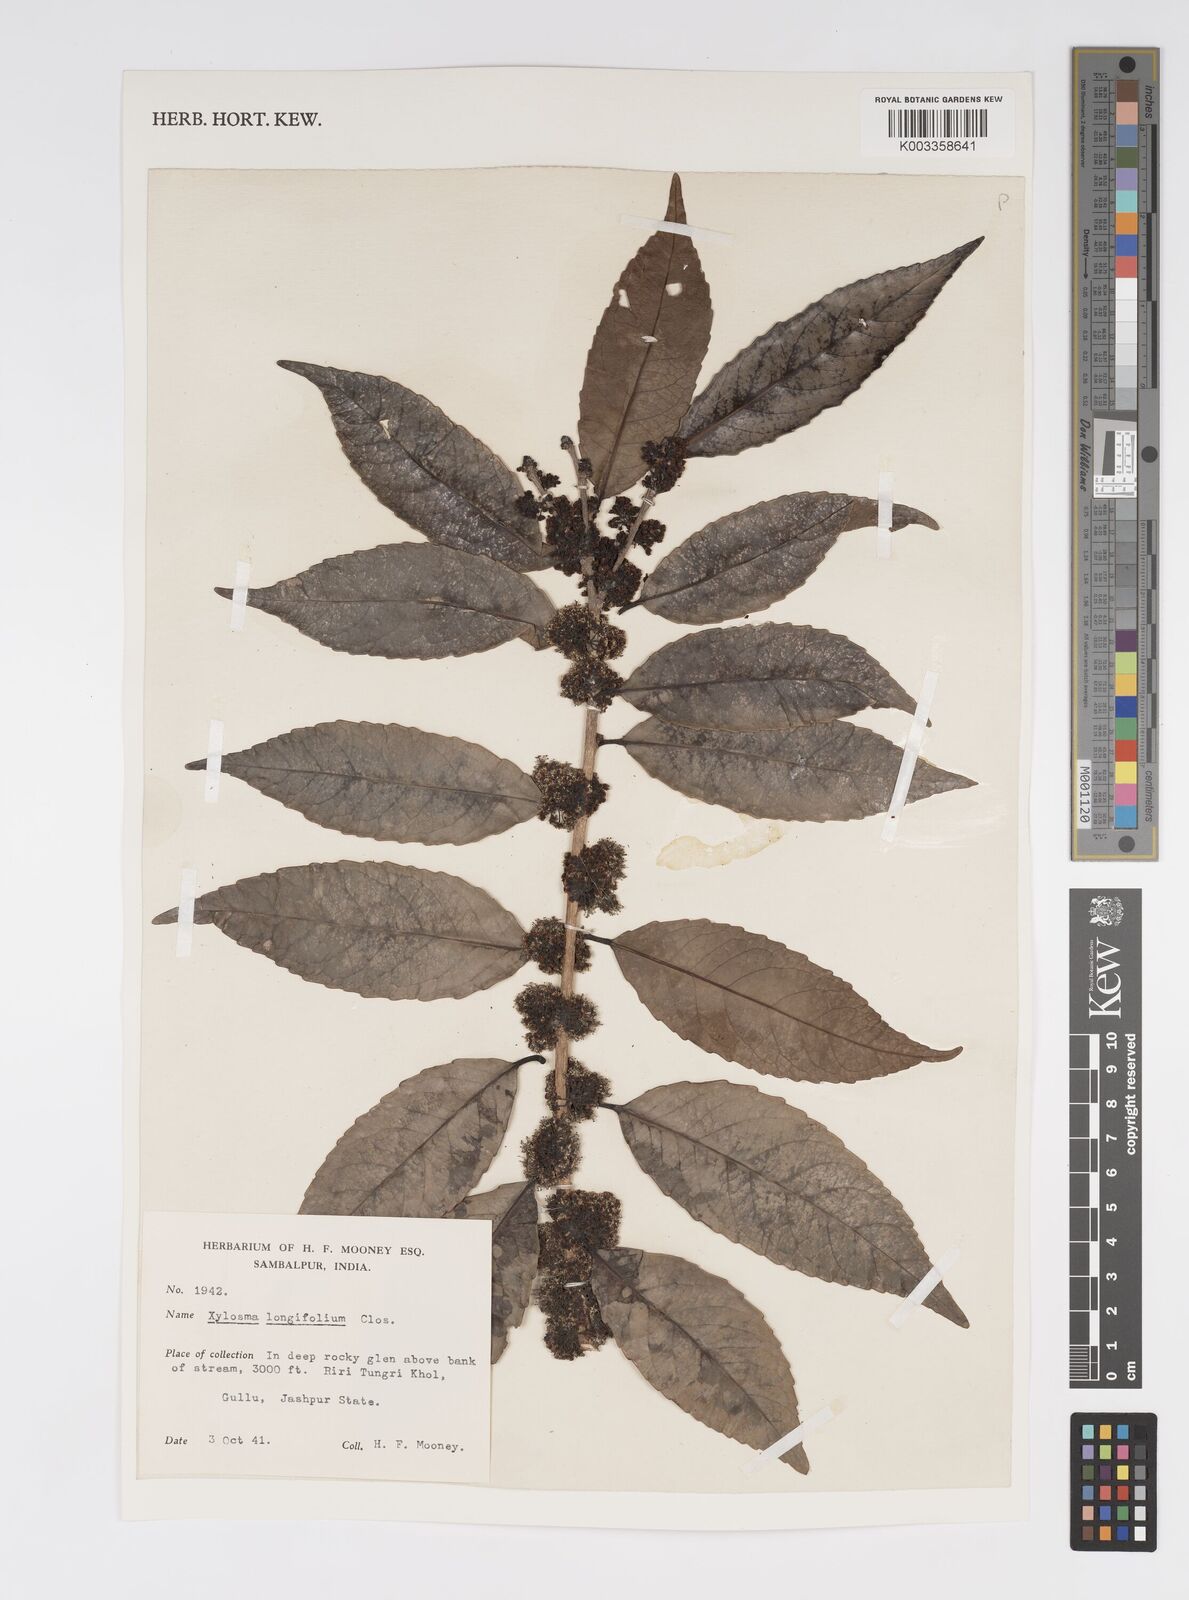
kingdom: Plantae
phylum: Tracheophyta
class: Magnoliopsida
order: Malpighiales
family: Salicaceae
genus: Xylosma
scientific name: Xylosma longifolia
